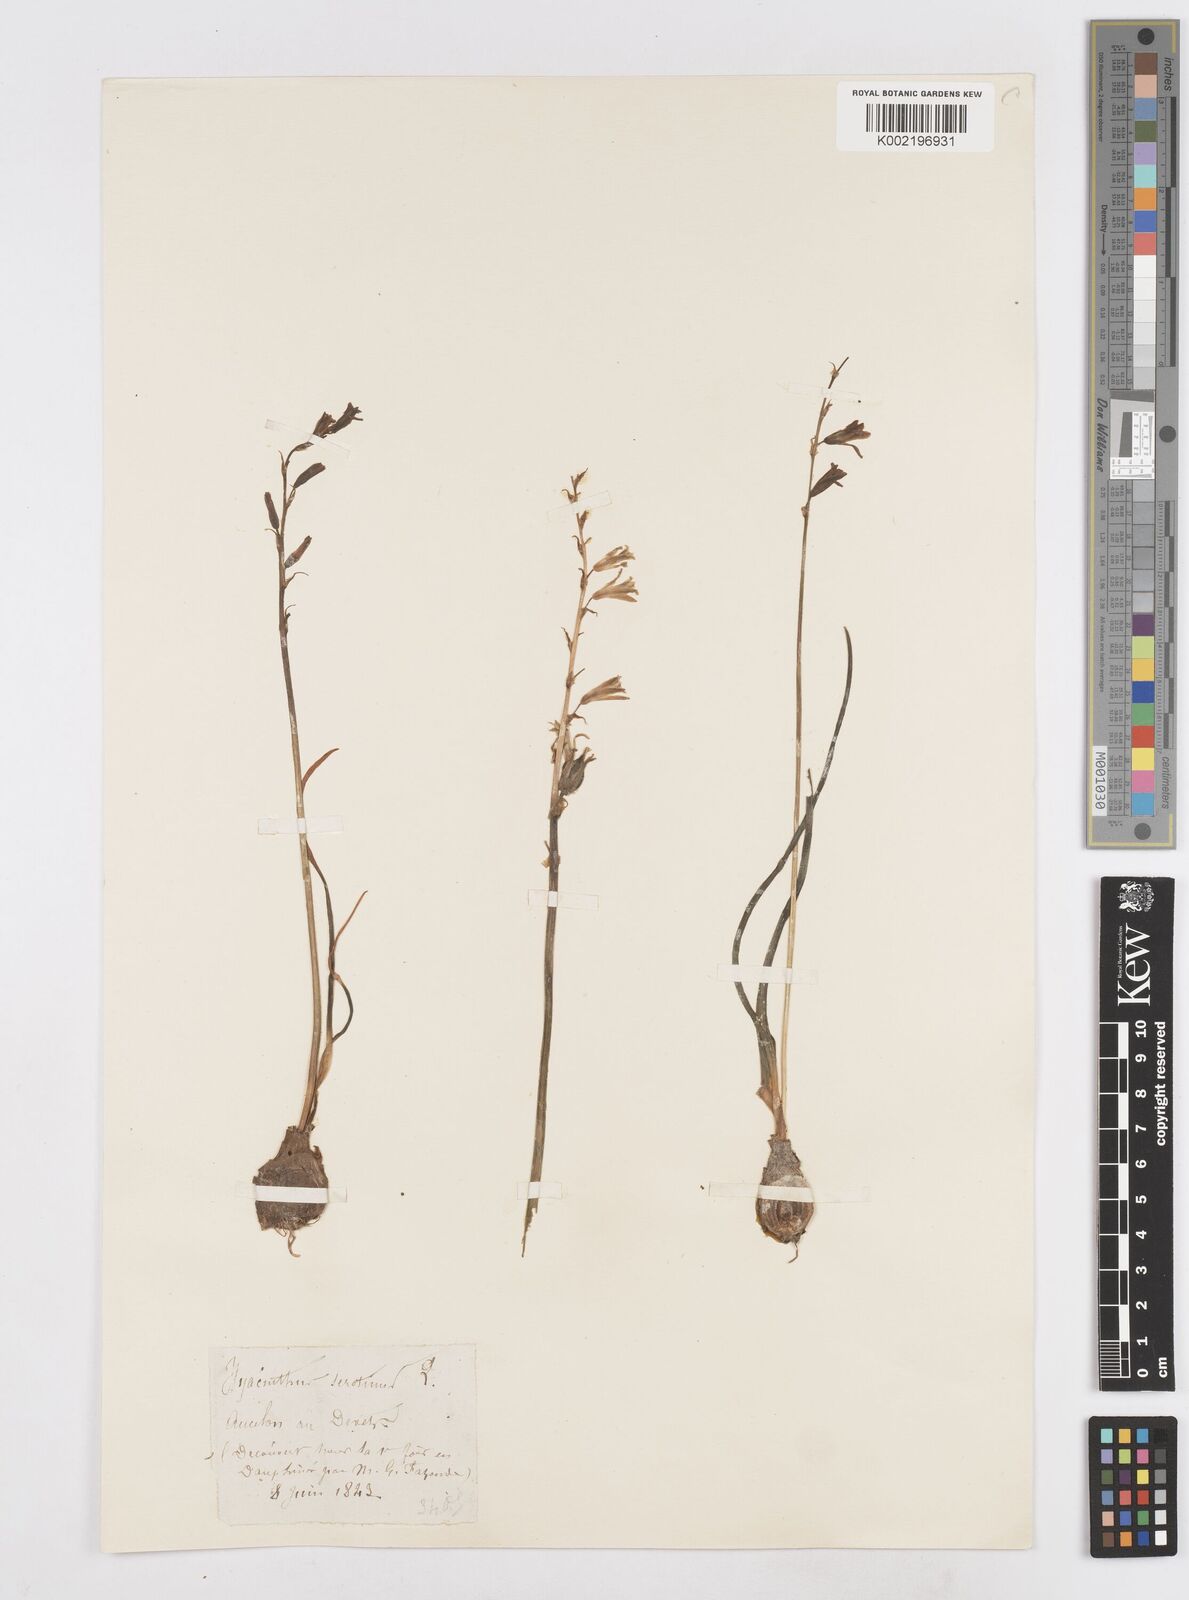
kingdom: Plantae
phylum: Tracheophyta
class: Liliopsida
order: Asparagales
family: Asparagaceae
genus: Dipcadi
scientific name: Dipcadi serotinum
